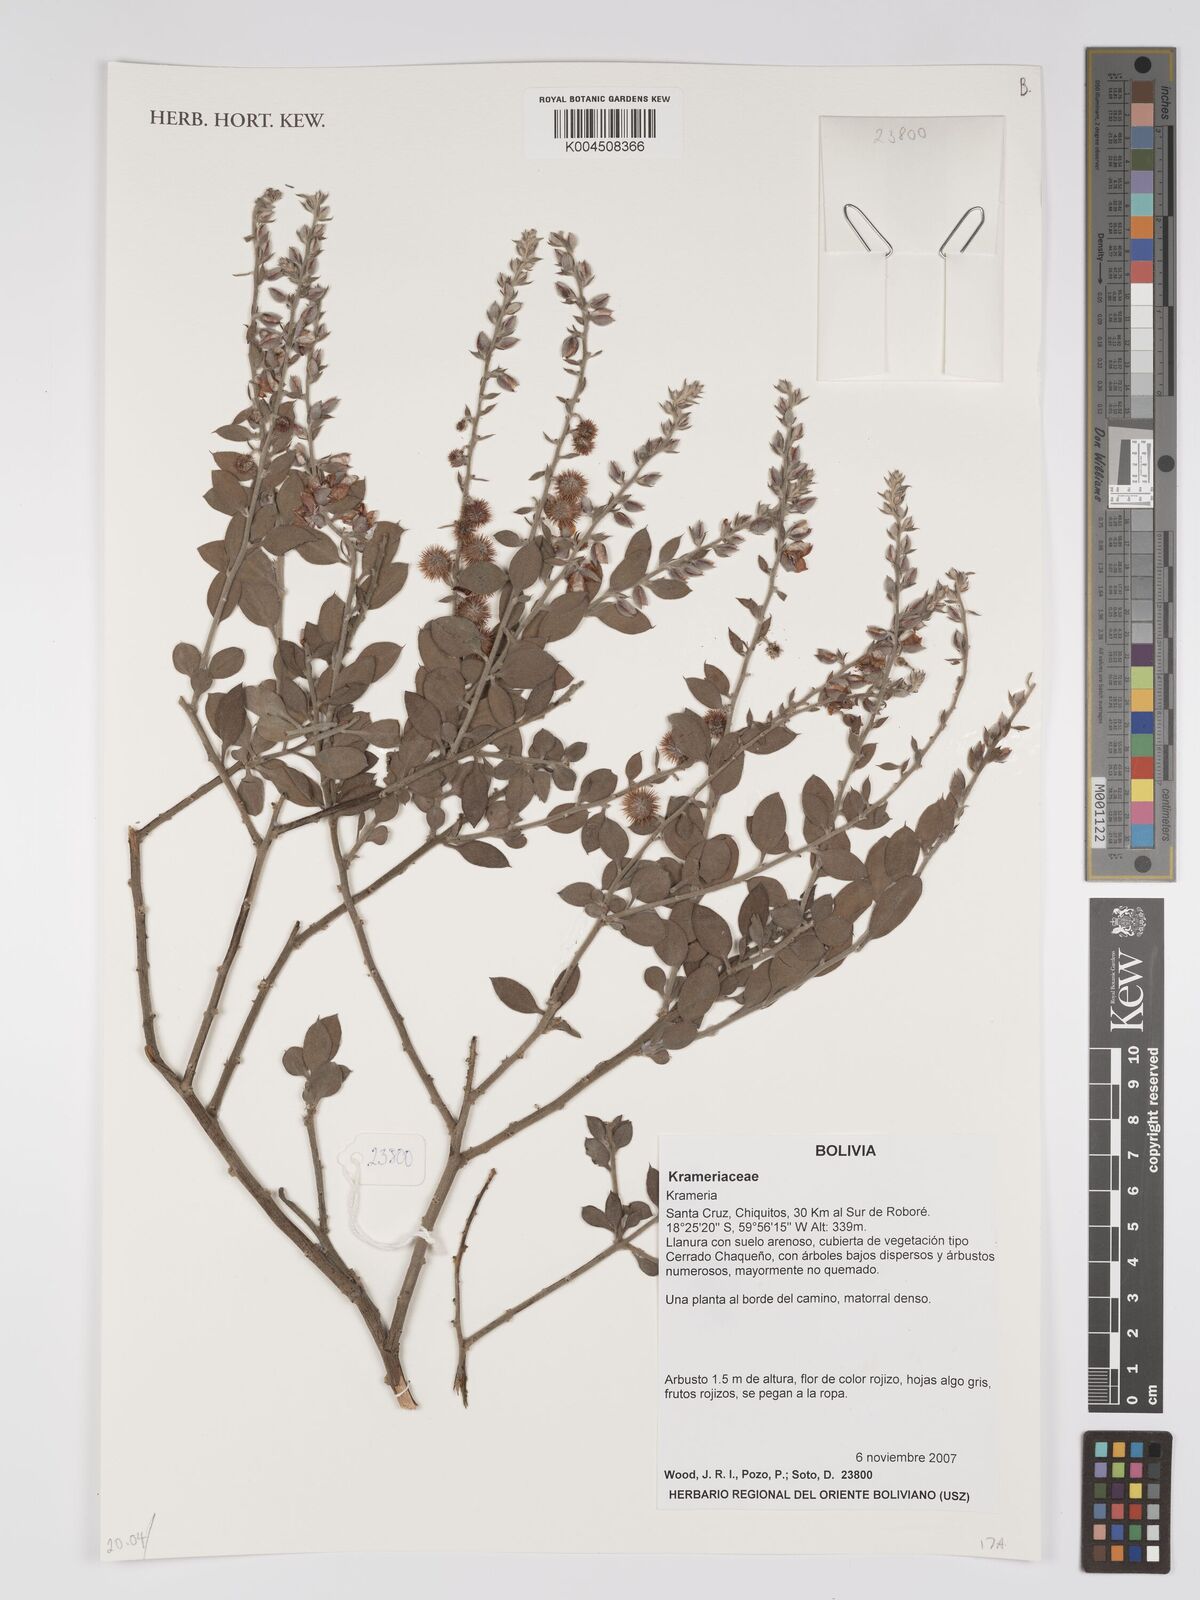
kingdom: Plantae
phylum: Tracheophyta
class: Magnoliopsida
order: Zygophyllales
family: Krameriaceae
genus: Krameria
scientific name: Krameria
